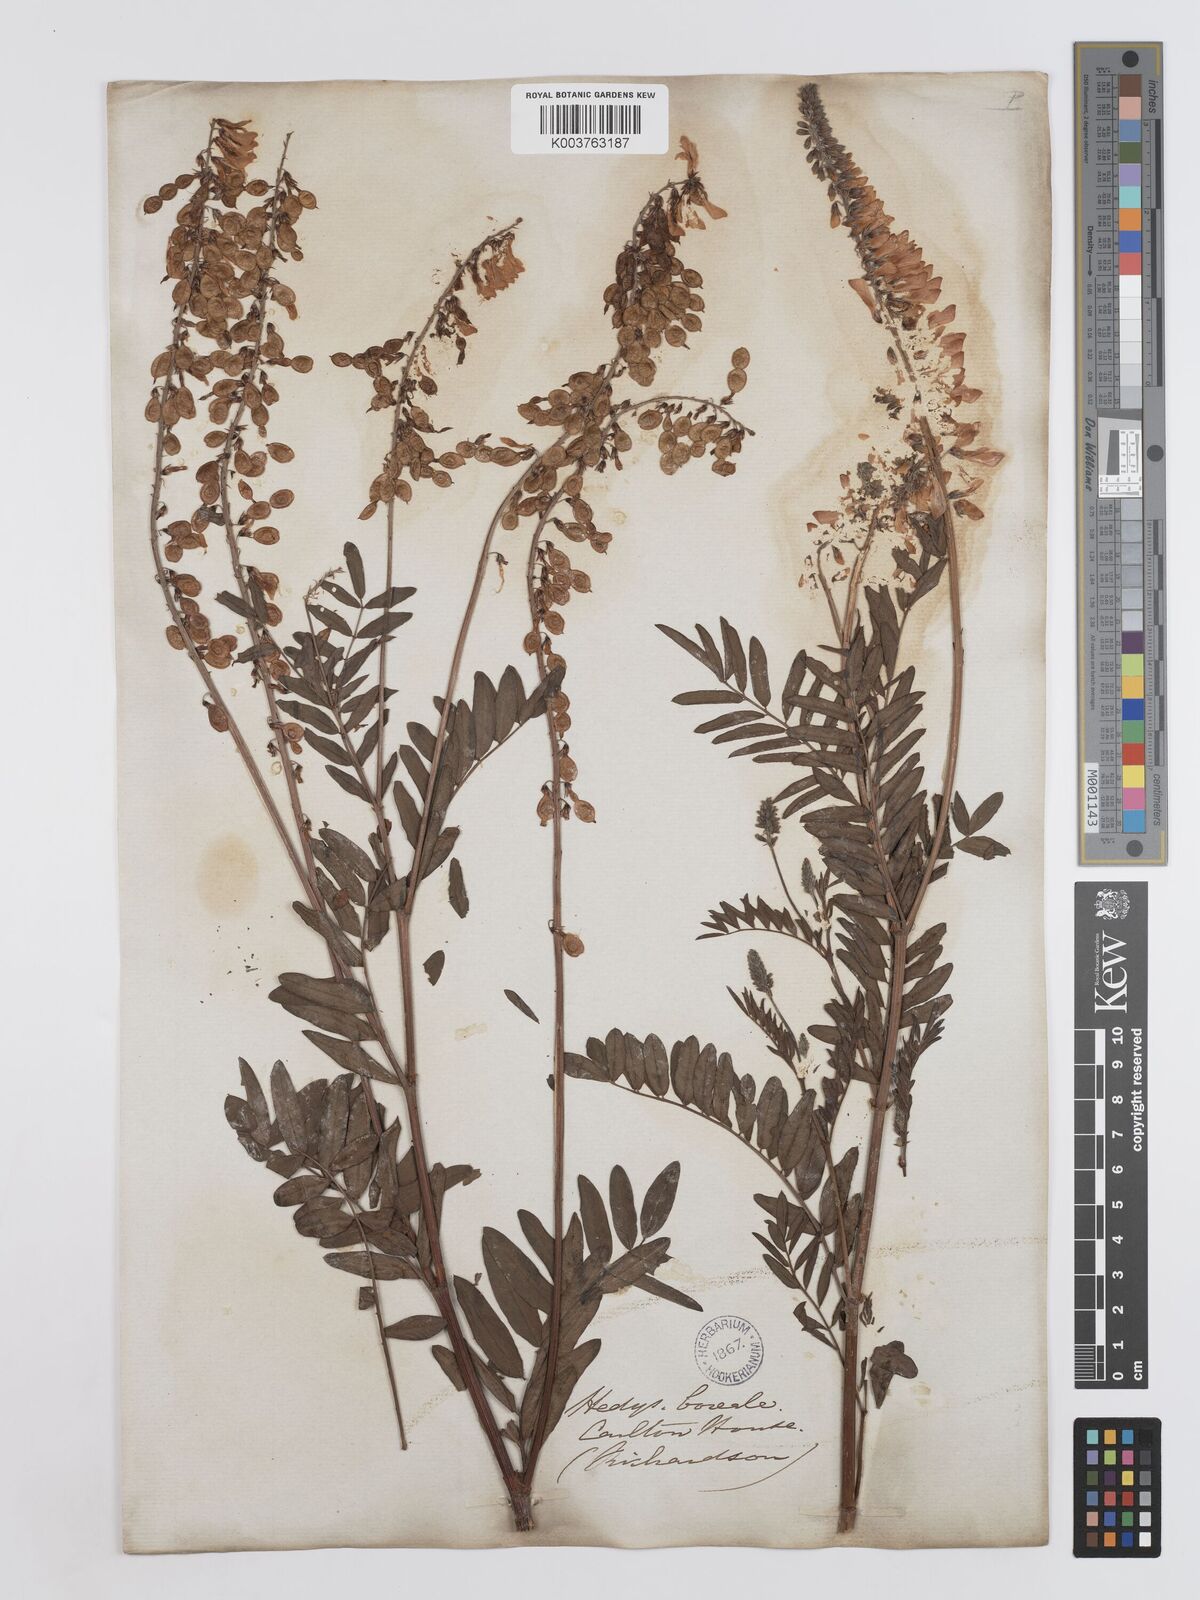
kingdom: Plantae
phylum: Tracheophyta
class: Magnoliopsida
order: Fabales
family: Fabaceae
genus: Hedysarum
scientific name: Hedysarum boreale
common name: Northern sweet-vetch
